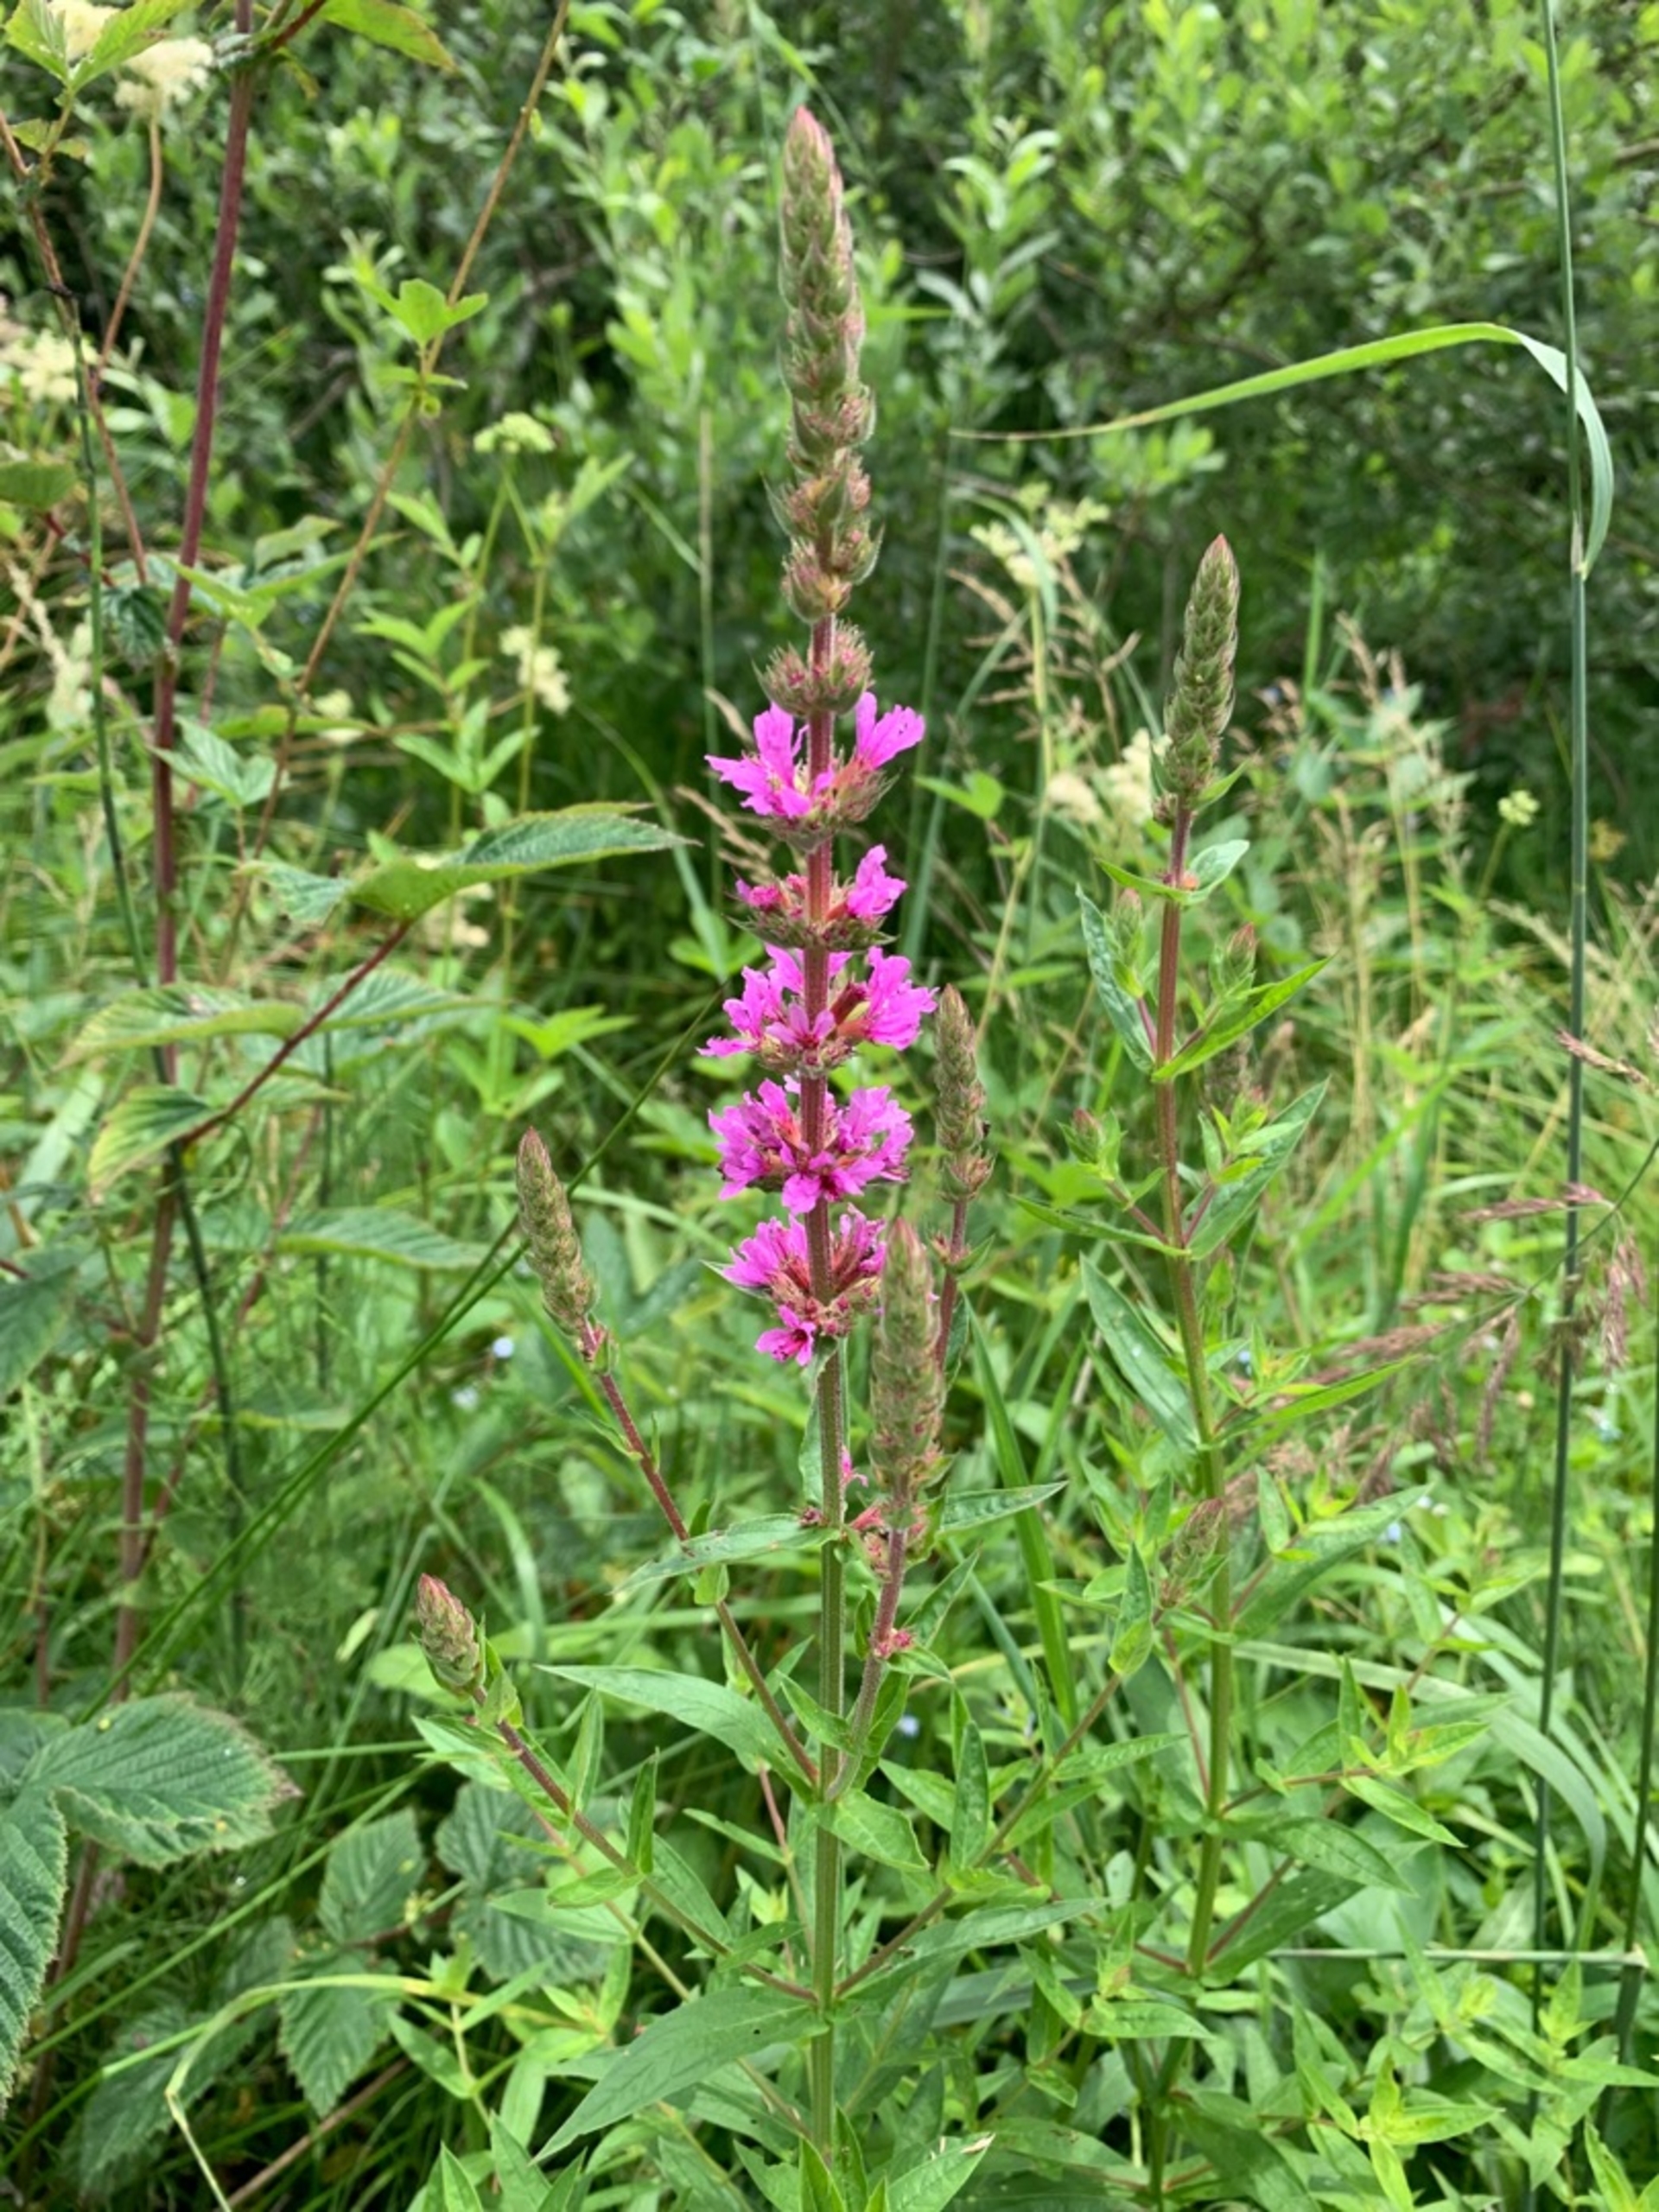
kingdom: Plantae
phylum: Tracheophyta
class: Magnoliopsida
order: Myrtales
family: Lythraceae
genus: Lythrum
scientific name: Lythrum salicaria
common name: Kattehale
